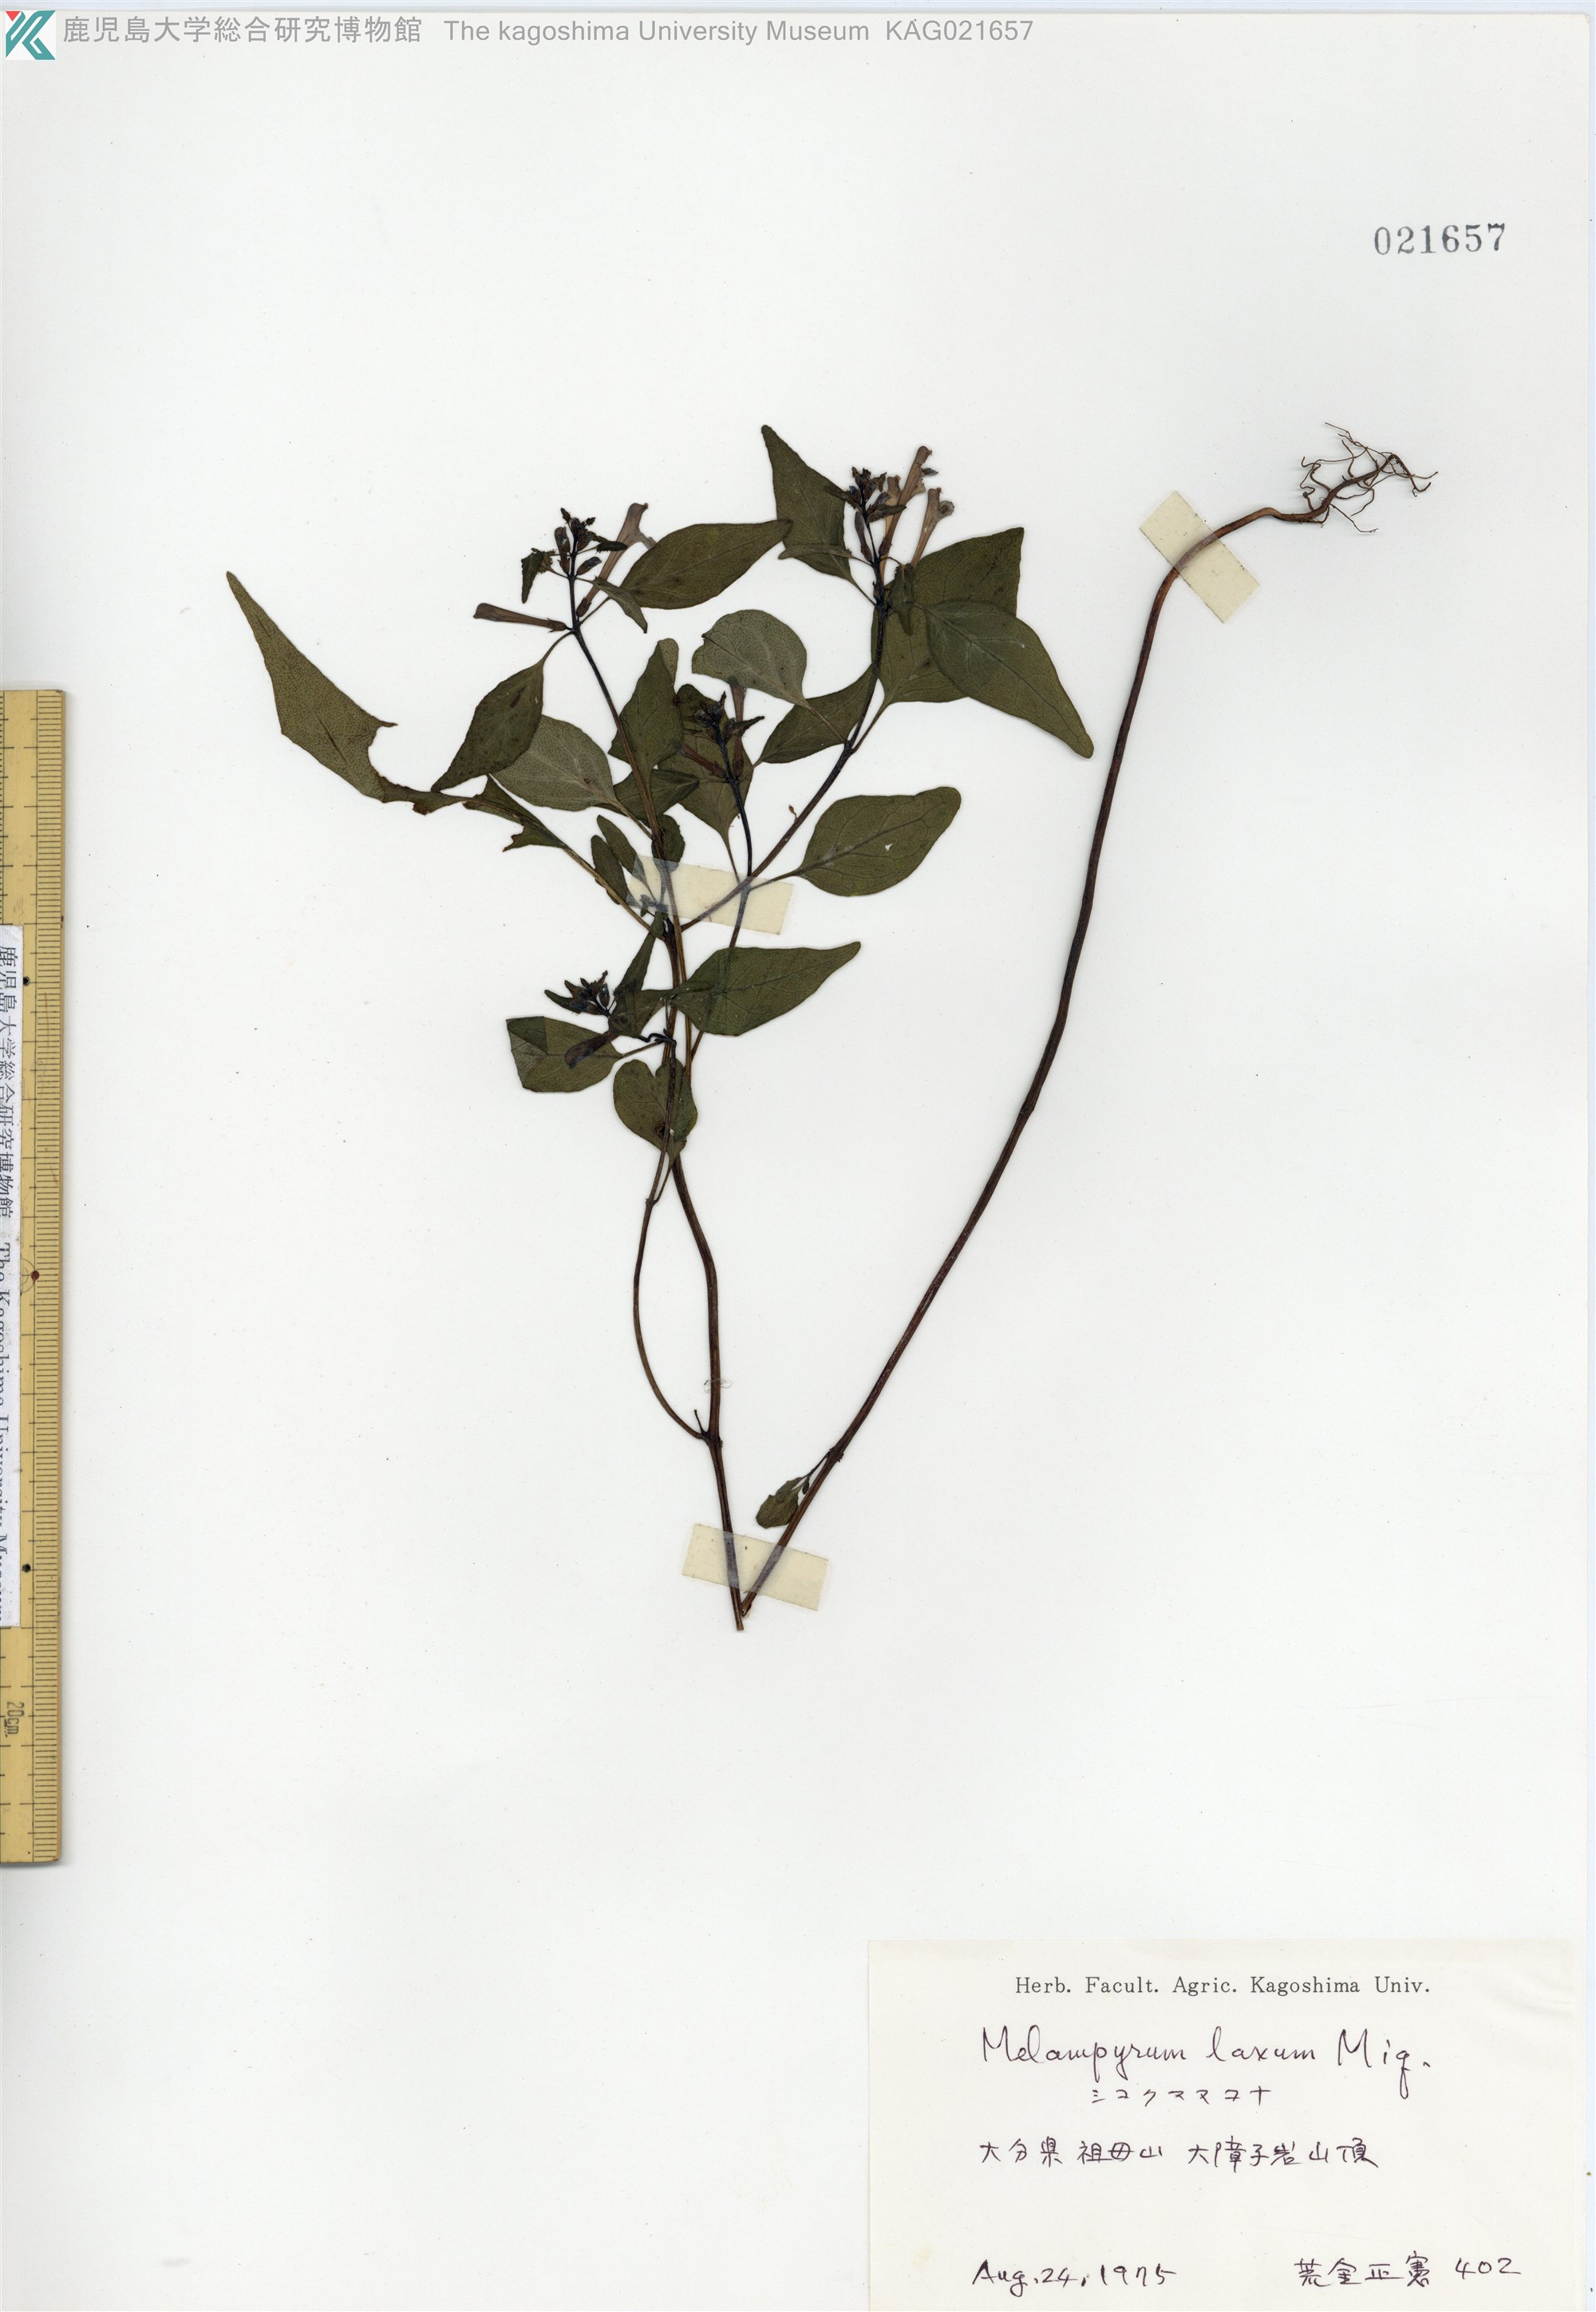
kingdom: Plantae
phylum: Tracheophyta
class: Magnoliopsida
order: Lamiales
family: Orobanchaceae
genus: Melampyrum
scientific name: Melampyrum laxum
